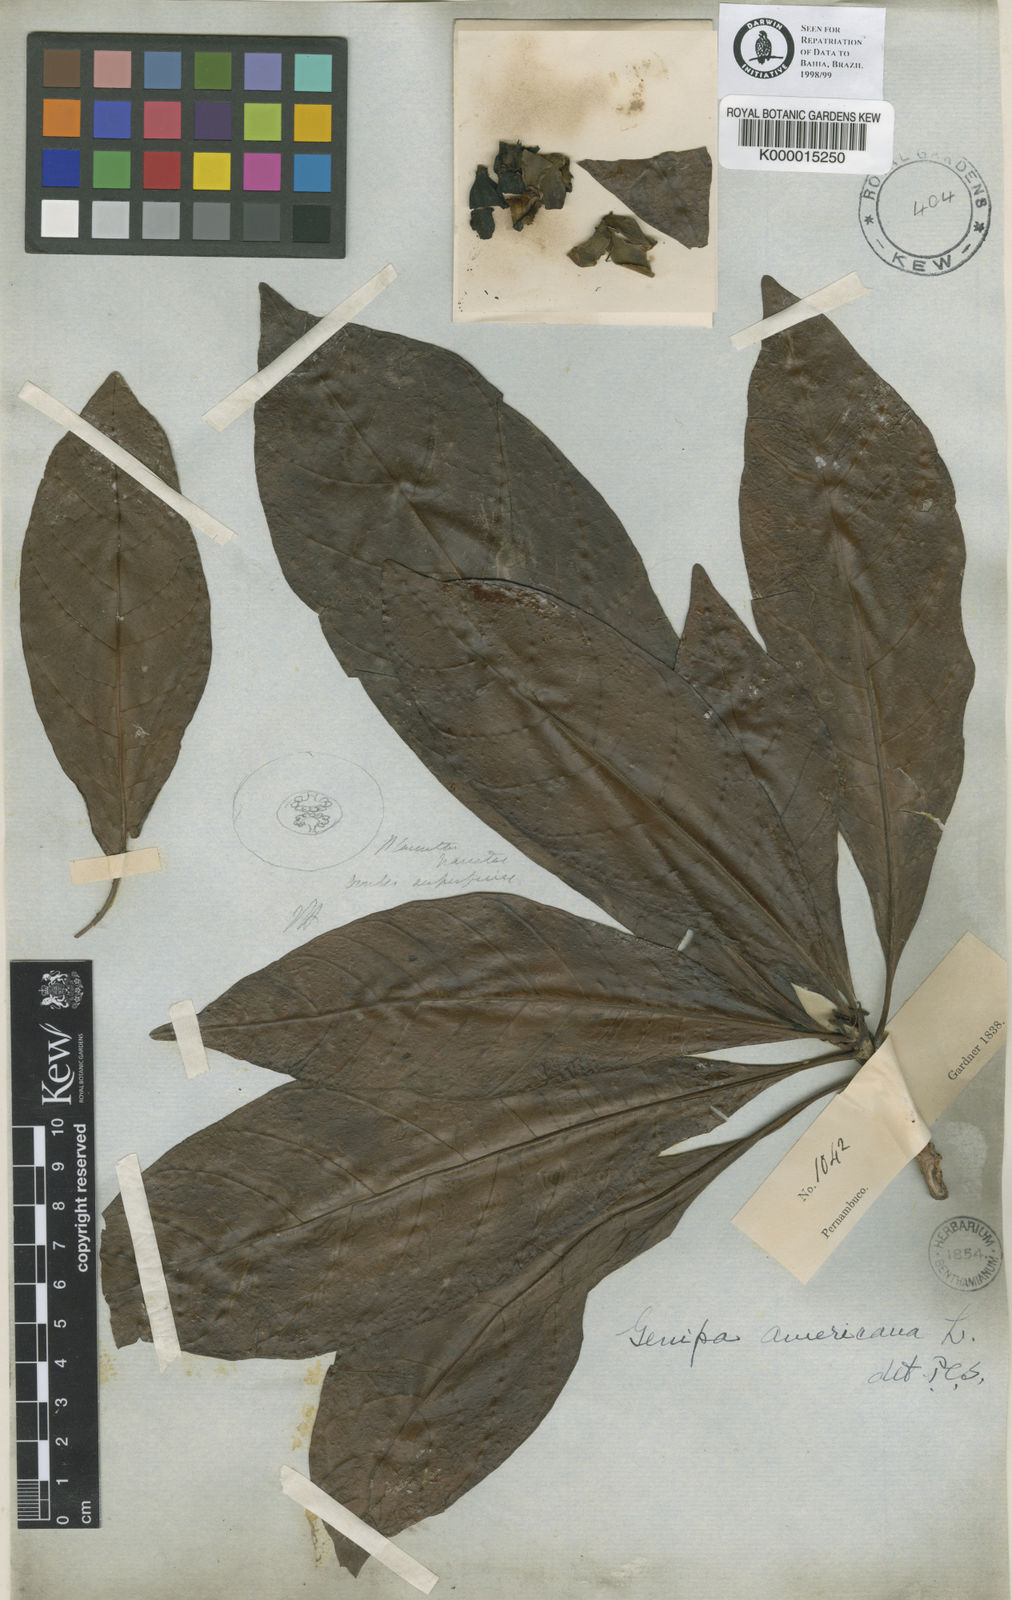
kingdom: Plantae
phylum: Tracheophyta
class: Magnoliopsida
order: Gentianales
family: Rubiaceae
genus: Genipa
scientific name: Genipa americana
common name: Genipap
